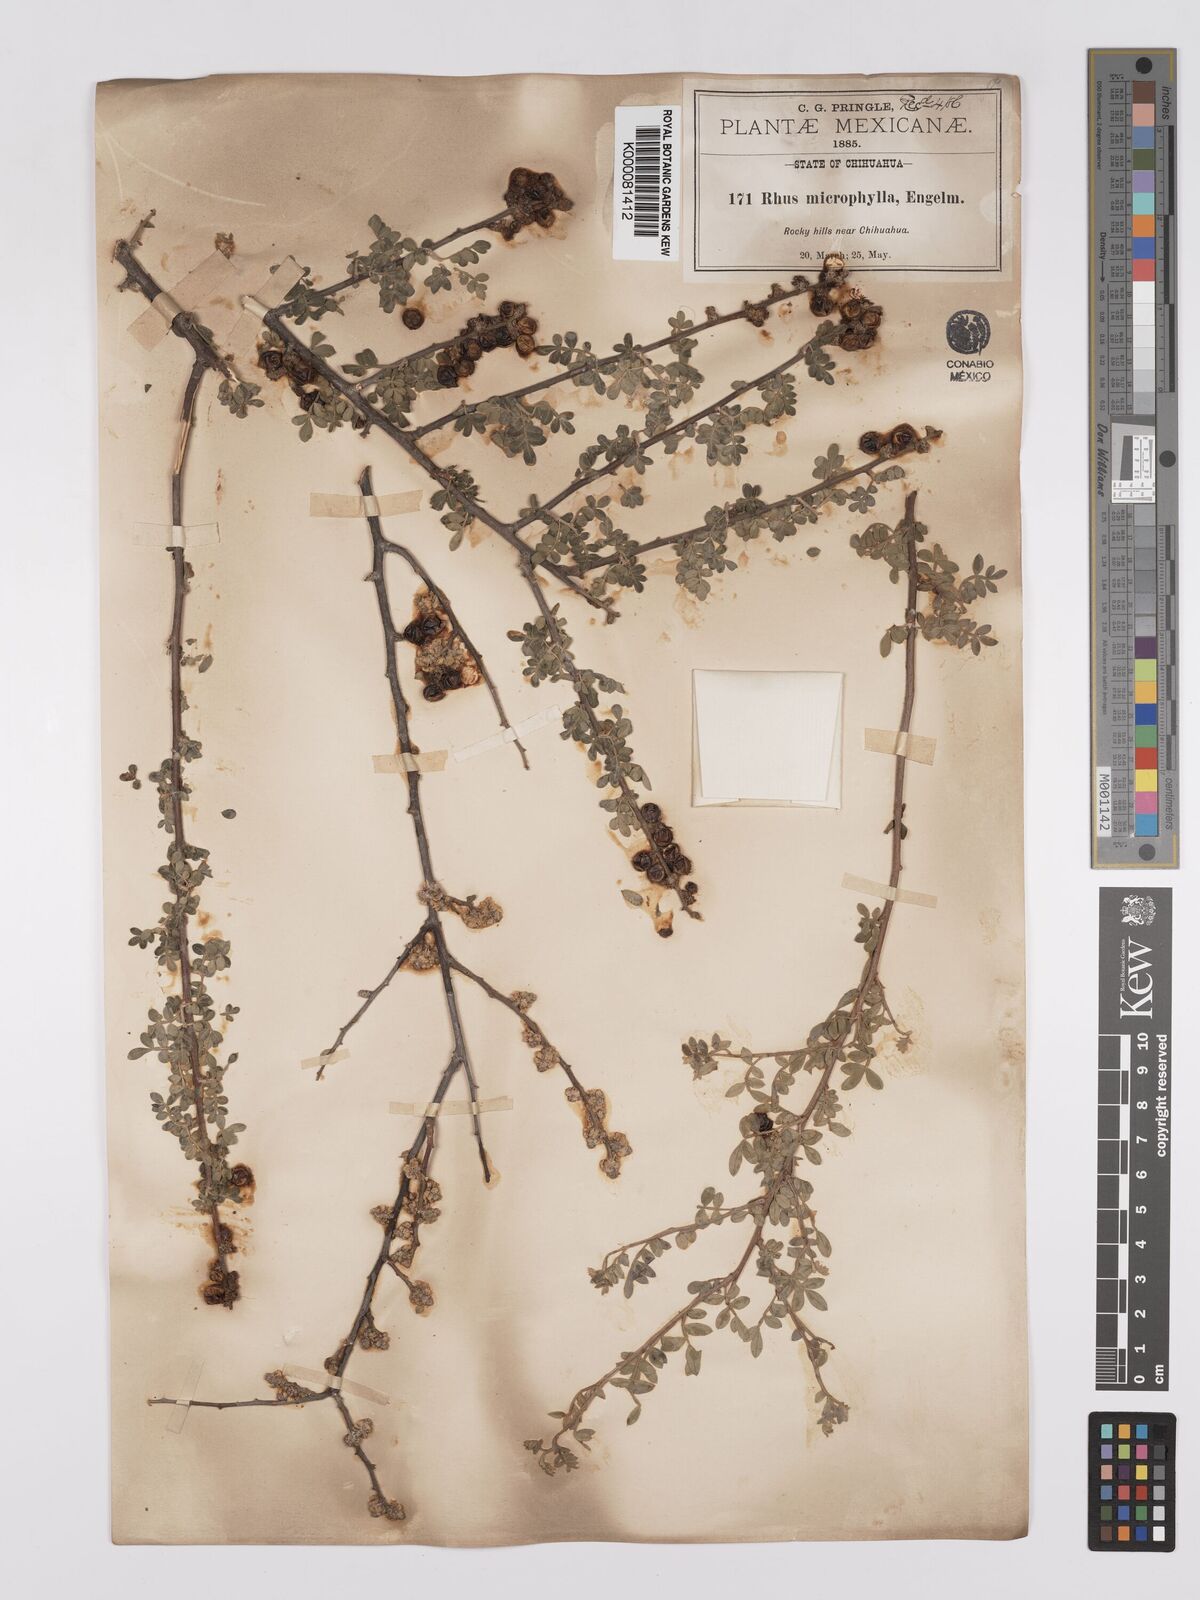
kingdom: Plantae
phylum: Tracheophyta
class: Magnoliopsida
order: Sapindales
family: Anacardiaceae
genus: Rhus
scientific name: Rhus
